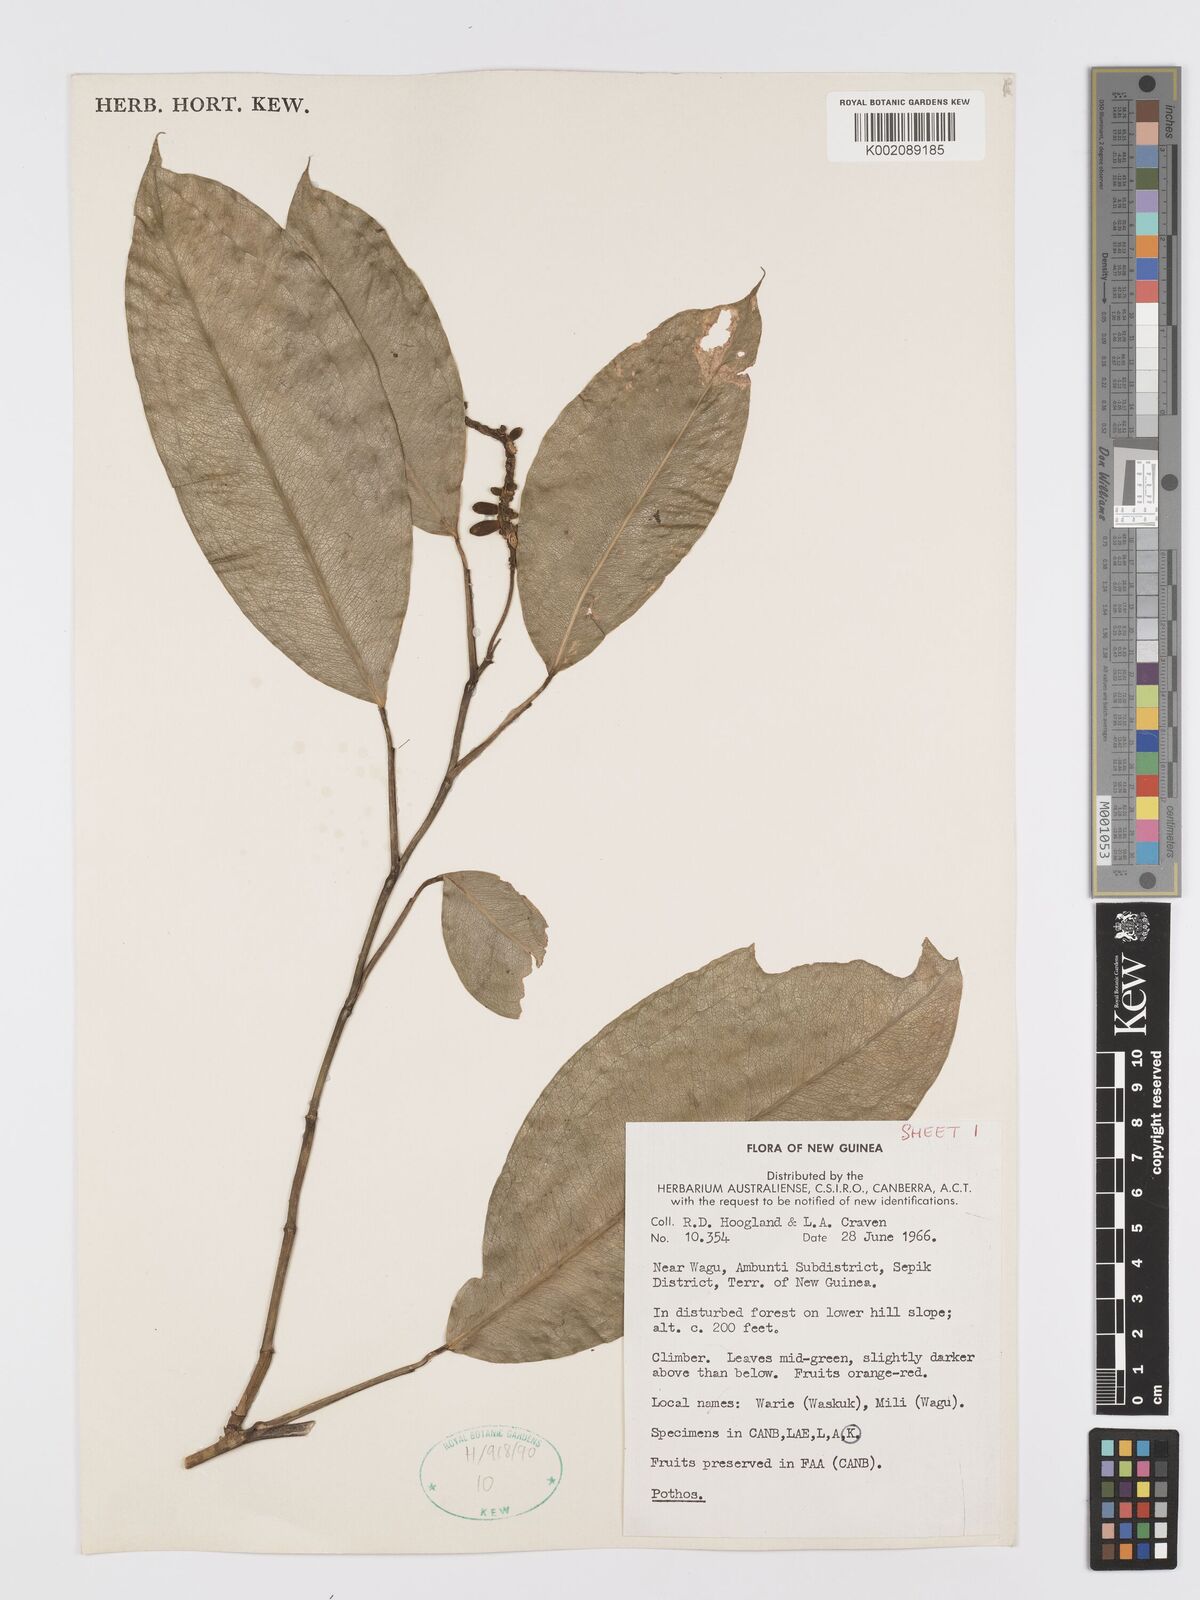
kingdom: Plantae
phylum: Tracheophyta
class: Liliopsida
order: Alismatales
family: Araceae
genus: Pothos
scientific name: Pothos
